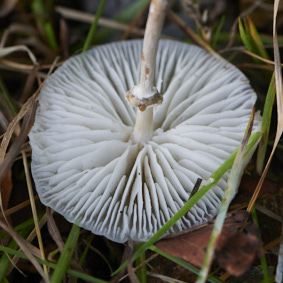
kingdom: Fungi
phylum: Basidiomycota
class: Agaricomycetes
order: Agaricales
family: Physalacriaceae
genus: Mucidula
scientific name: Mucidula mucida
